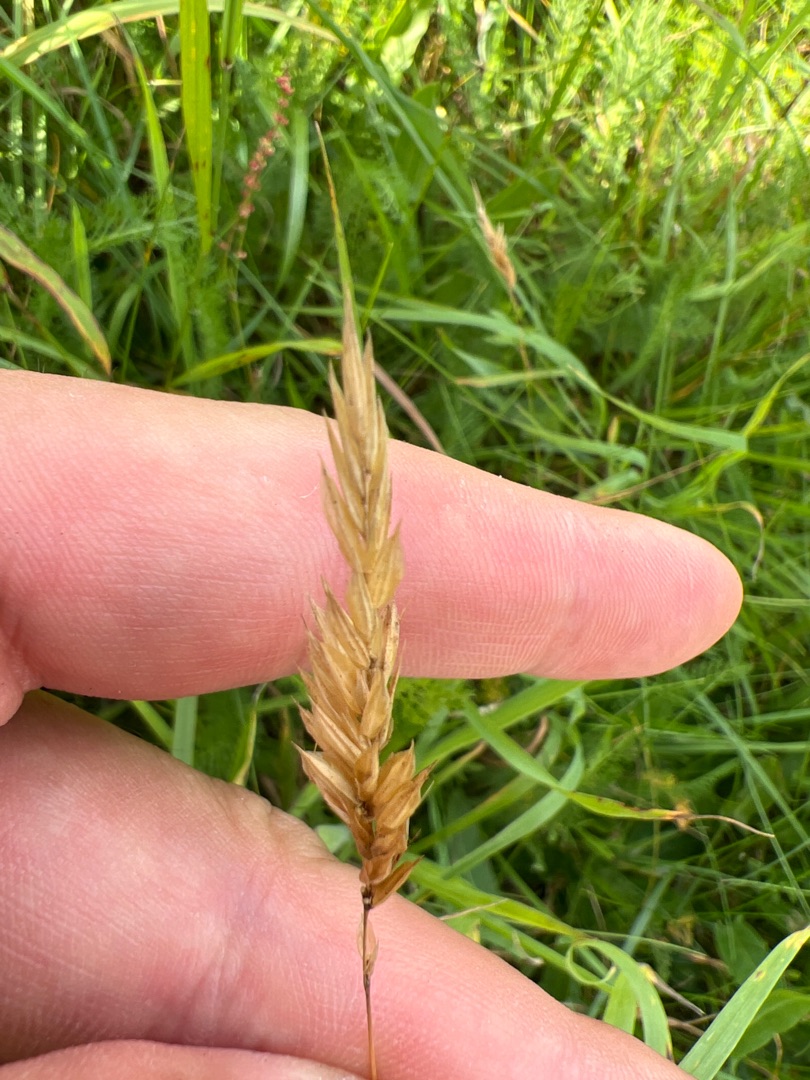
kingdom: Plantae
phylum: Tracheophyta
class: Liliopsida
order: Poales
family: Poaceae
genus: Anthoxanthum
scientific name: Anthoxanthum odoratum
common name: Vellugtende gulaks
